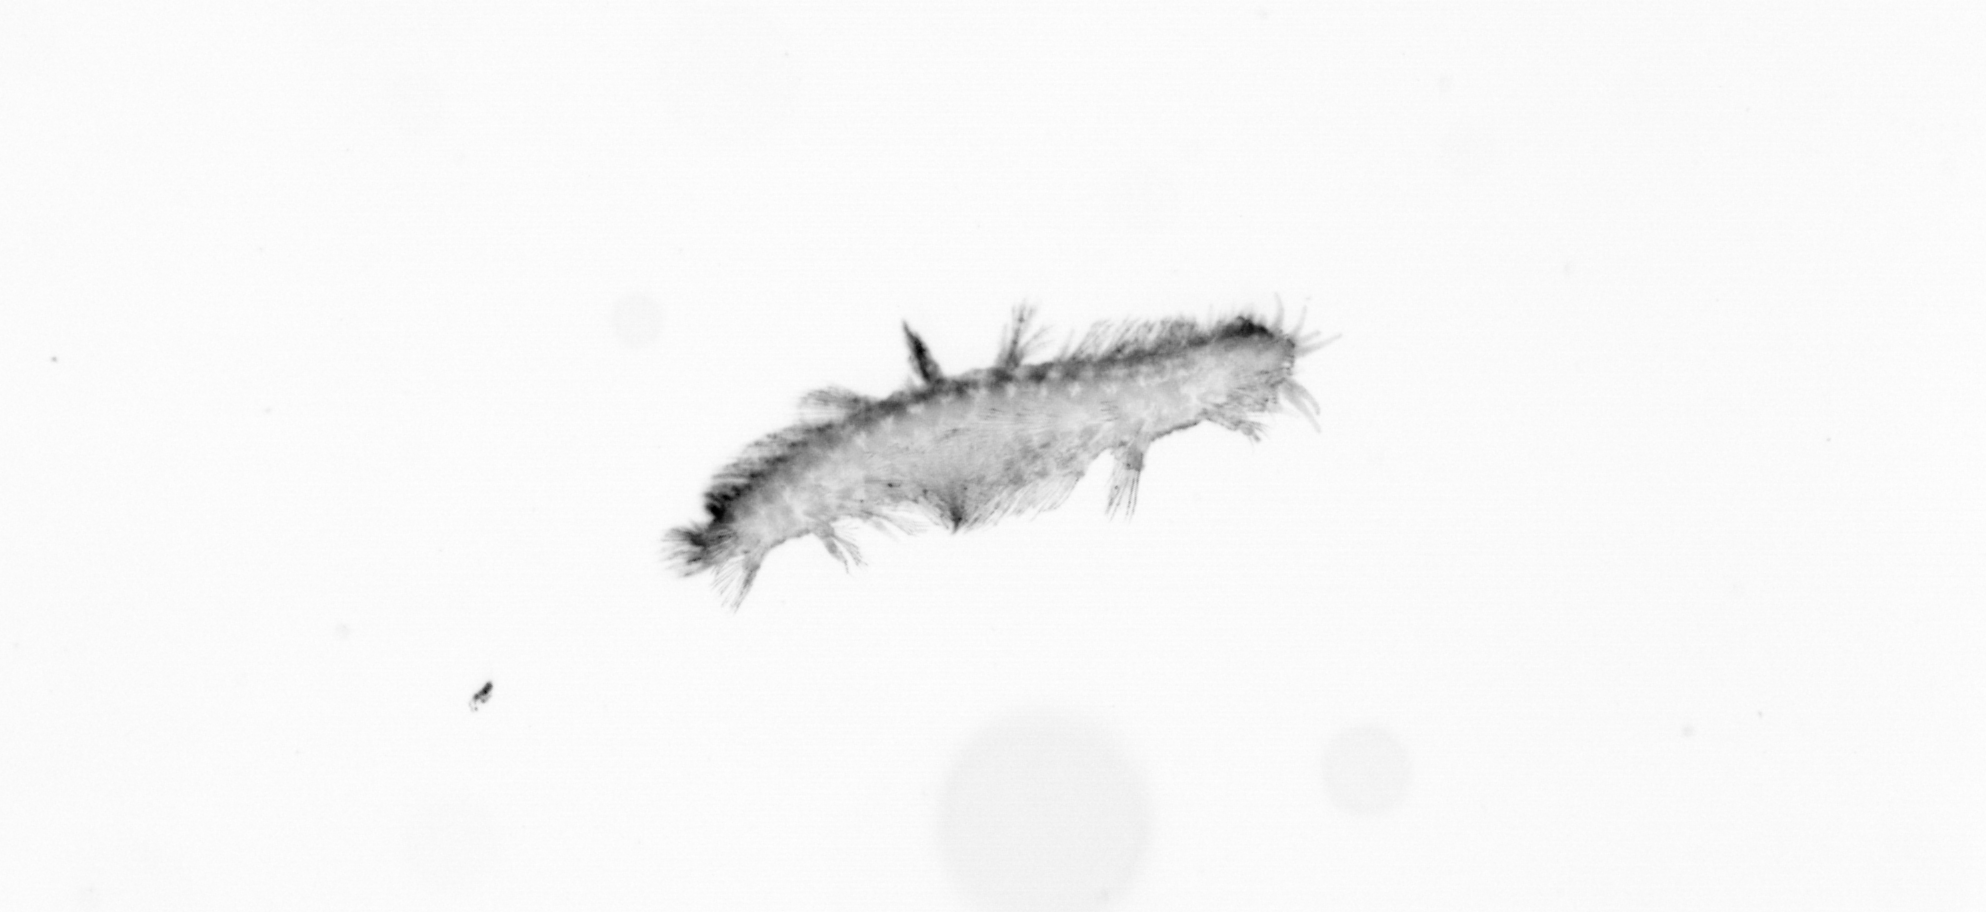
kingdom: Animalia
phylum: Annelida
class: Polychaeta
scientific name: Polychaeta
